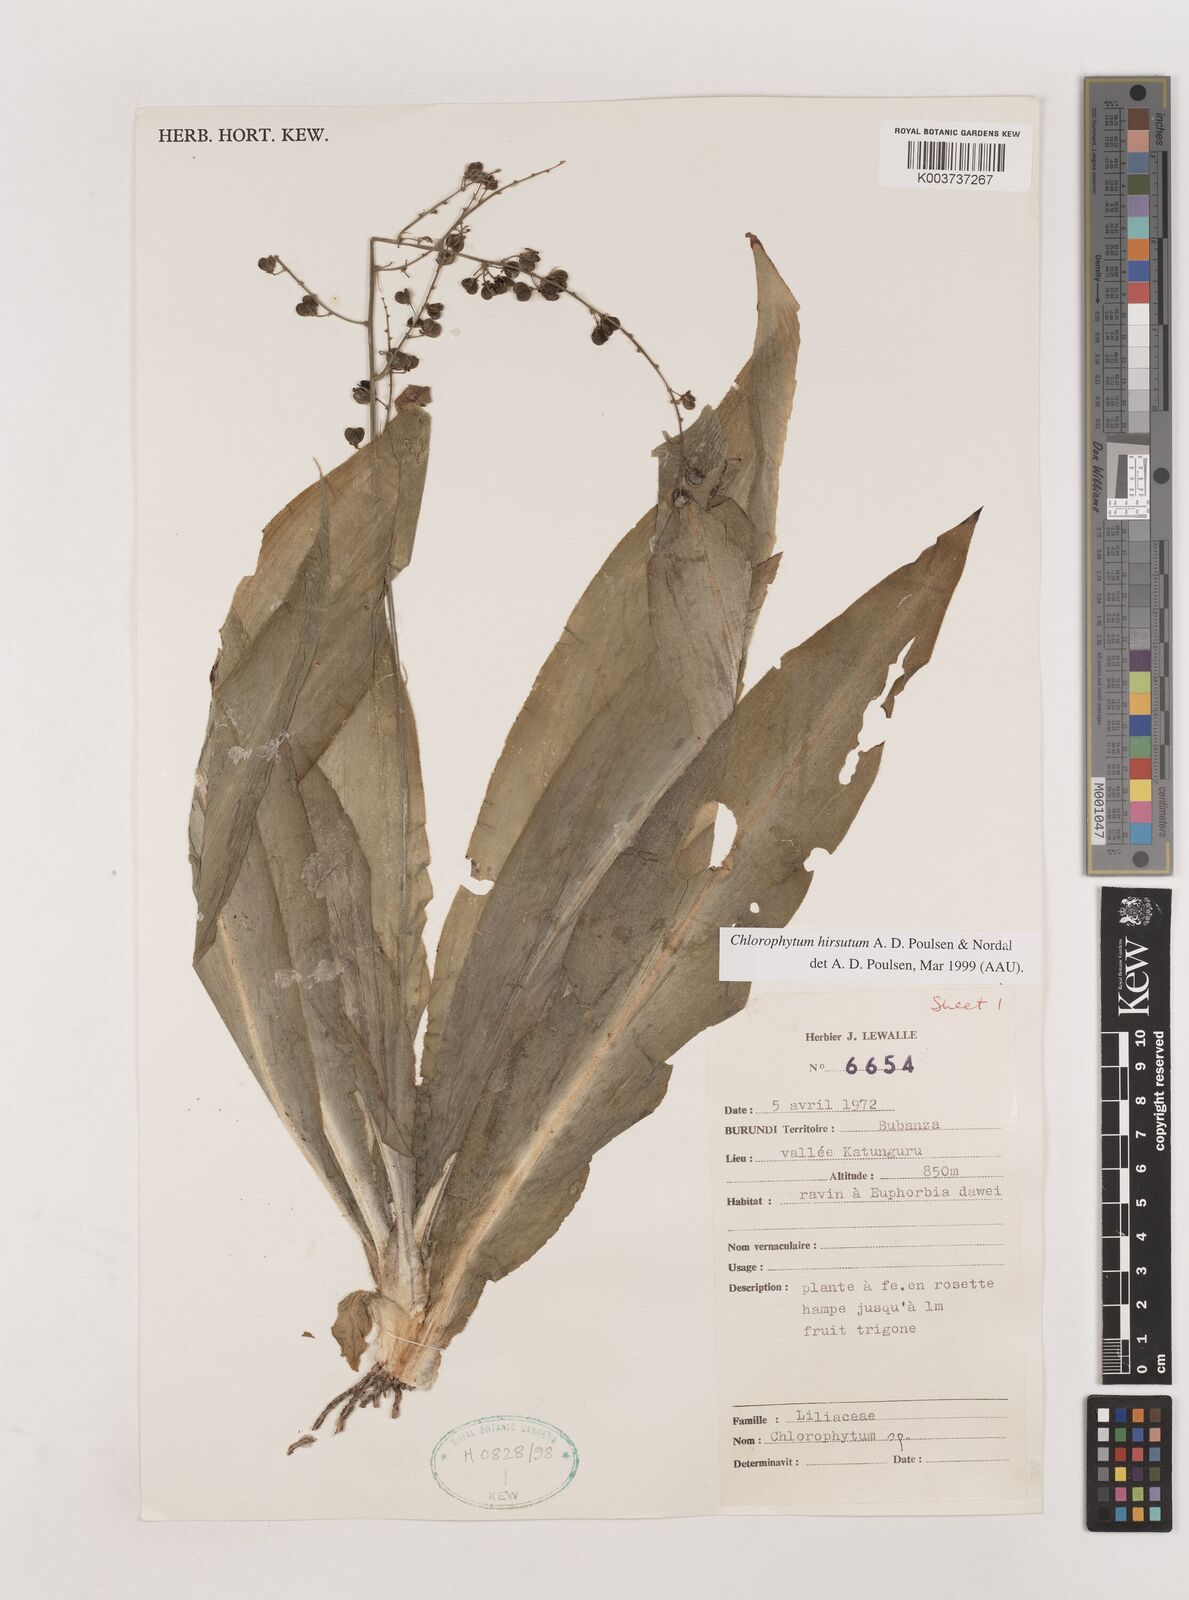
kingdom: Plantae
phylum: Tracheophyta
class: Liliopsida
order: Asparagales
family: Asparagaceae
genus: Chlorophytum
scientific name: Chlorophytum hirsutum
